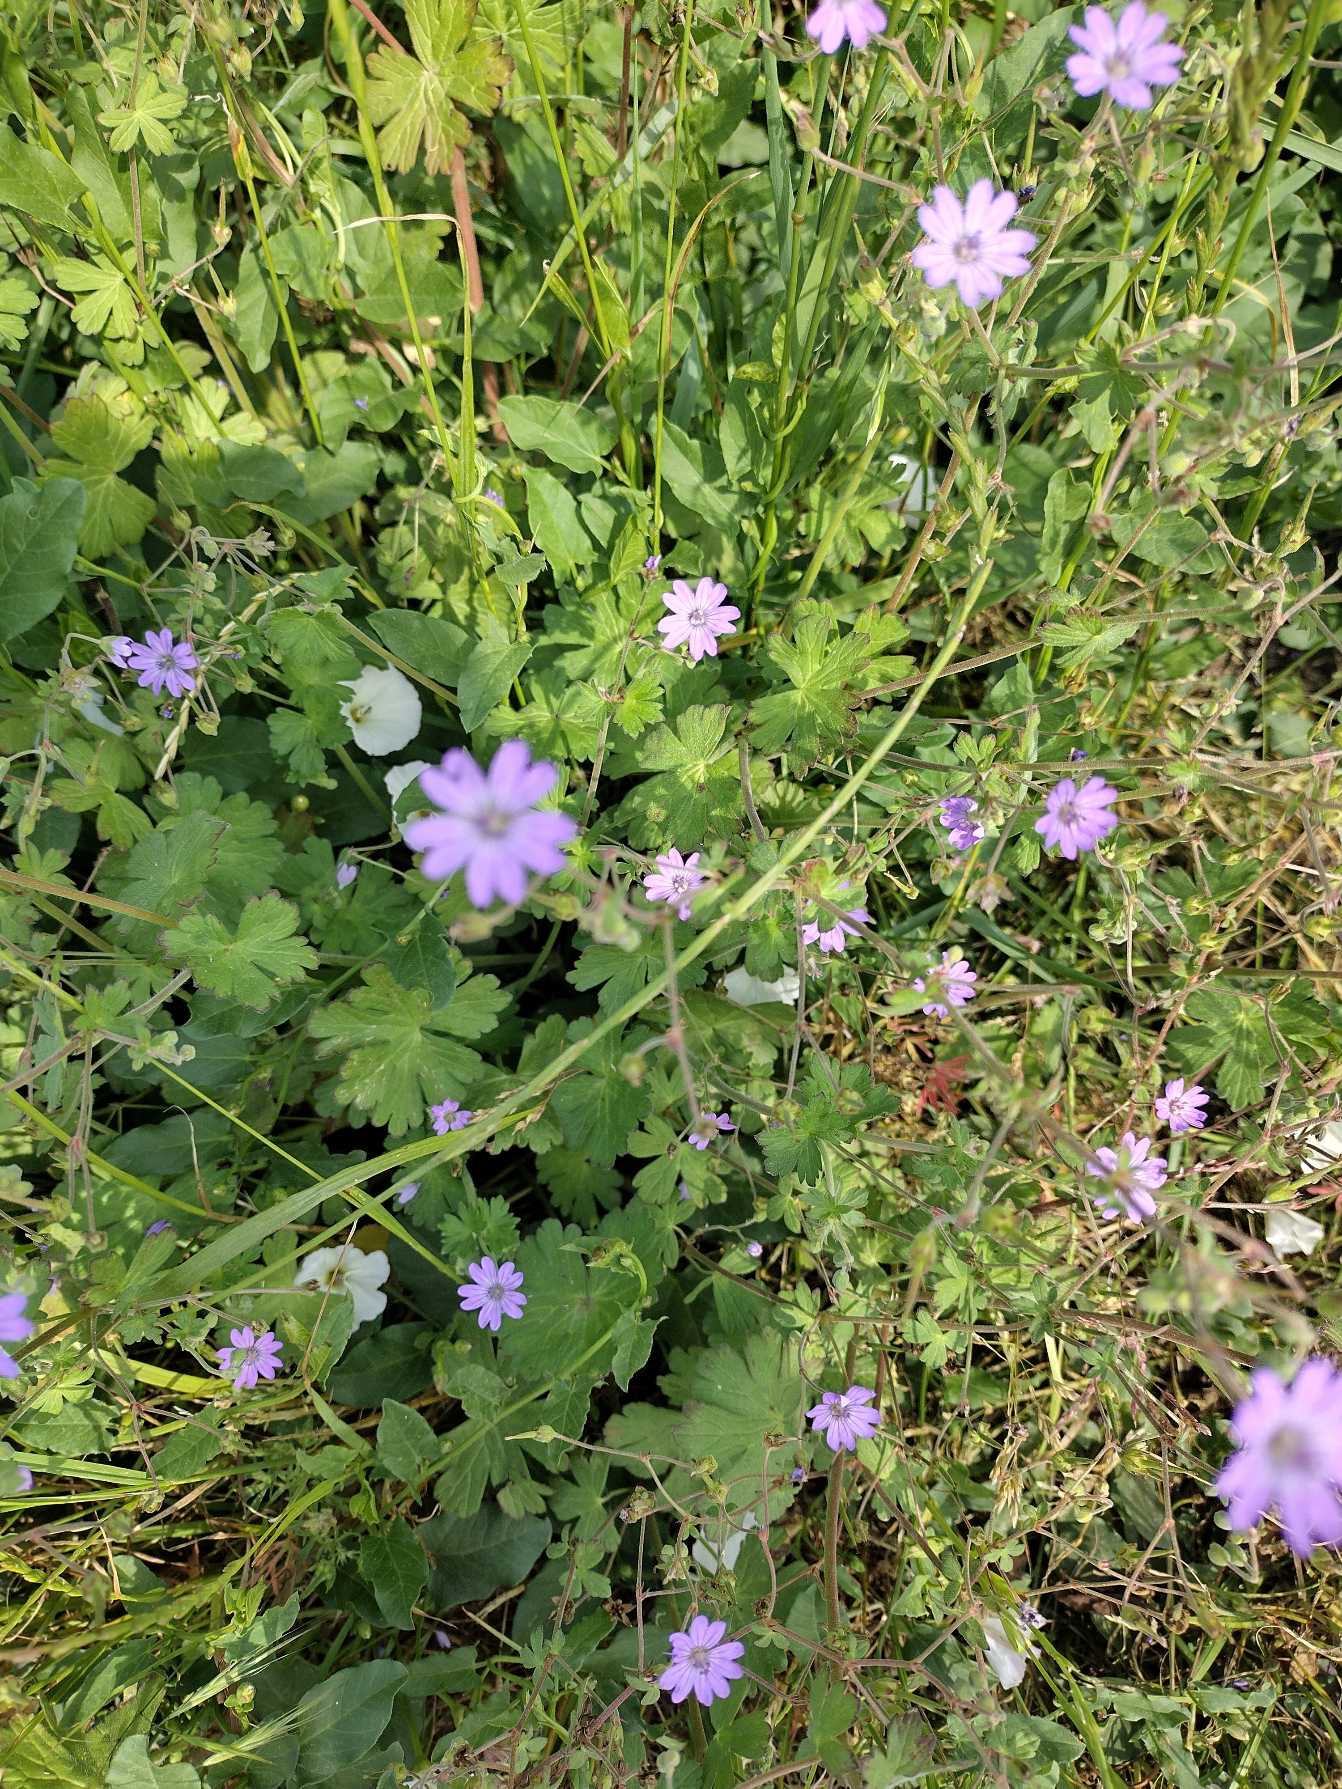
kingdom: Plantae
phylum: Tracheophyta
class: Magnoliopsida
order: Geraniales
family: Geraniaceae
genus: Geranium
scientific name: Geranium pyrenaicum
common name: Pyrenæisk storkenæb
